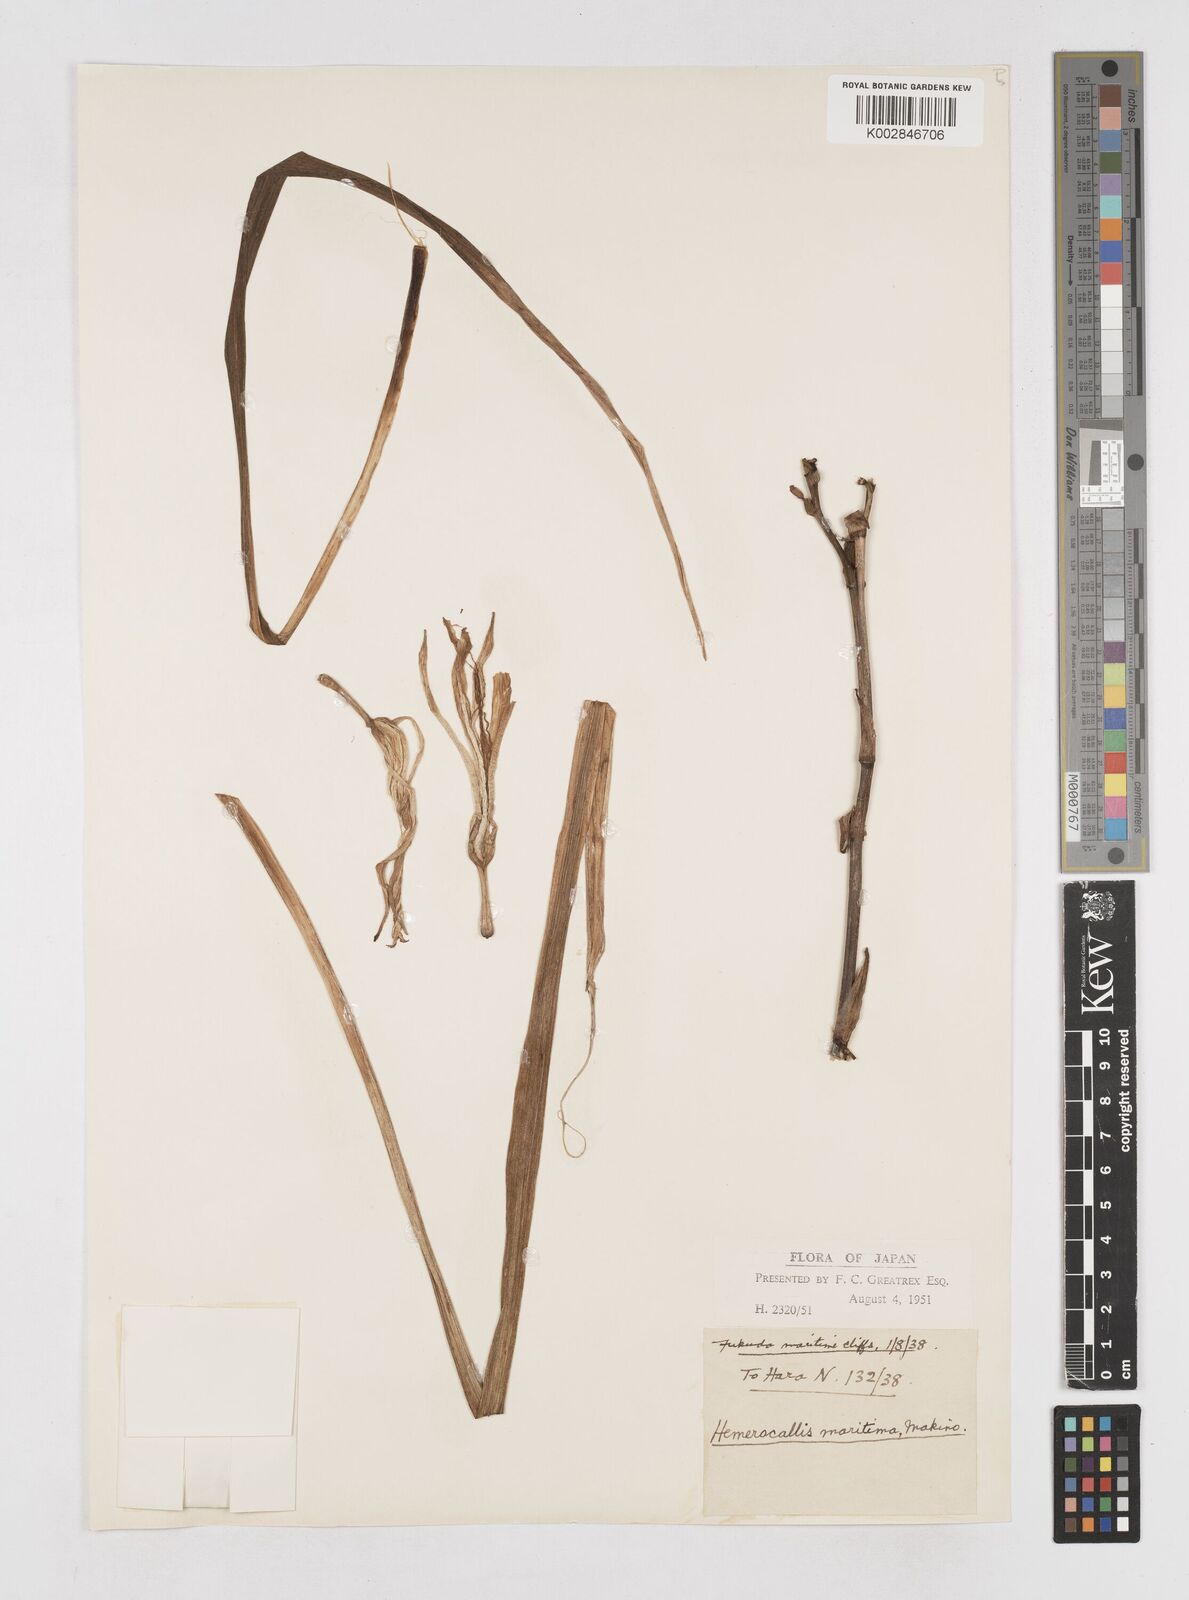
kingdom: Plantae
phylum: Tracheophyta
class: Liliopsida
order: Asparagales
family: Asphodelaceae
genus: Hemerocallis
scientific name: Hemerocallis
